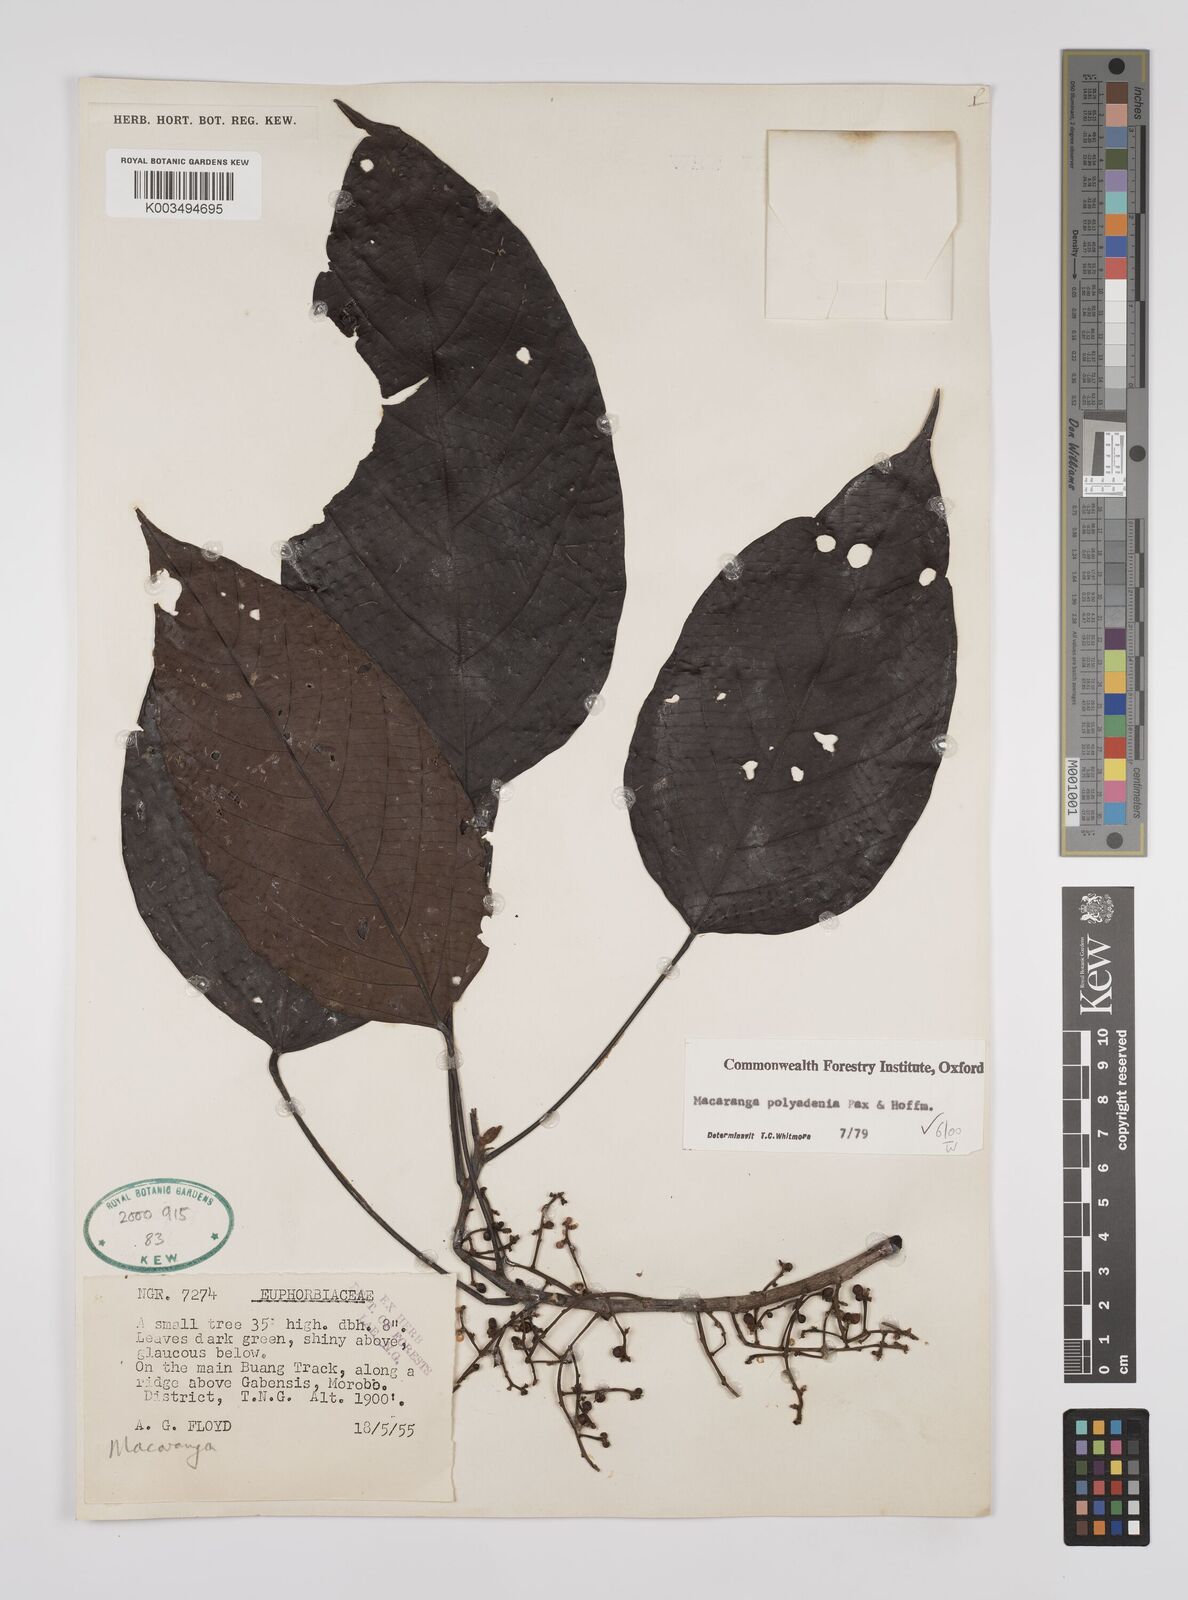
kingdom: Plantae
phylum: Tracheophyta
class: Magnoliopsida
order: Malpighiales
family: Euphorbiaceae
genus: Macaranga
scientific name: Macaranga polyadenia
